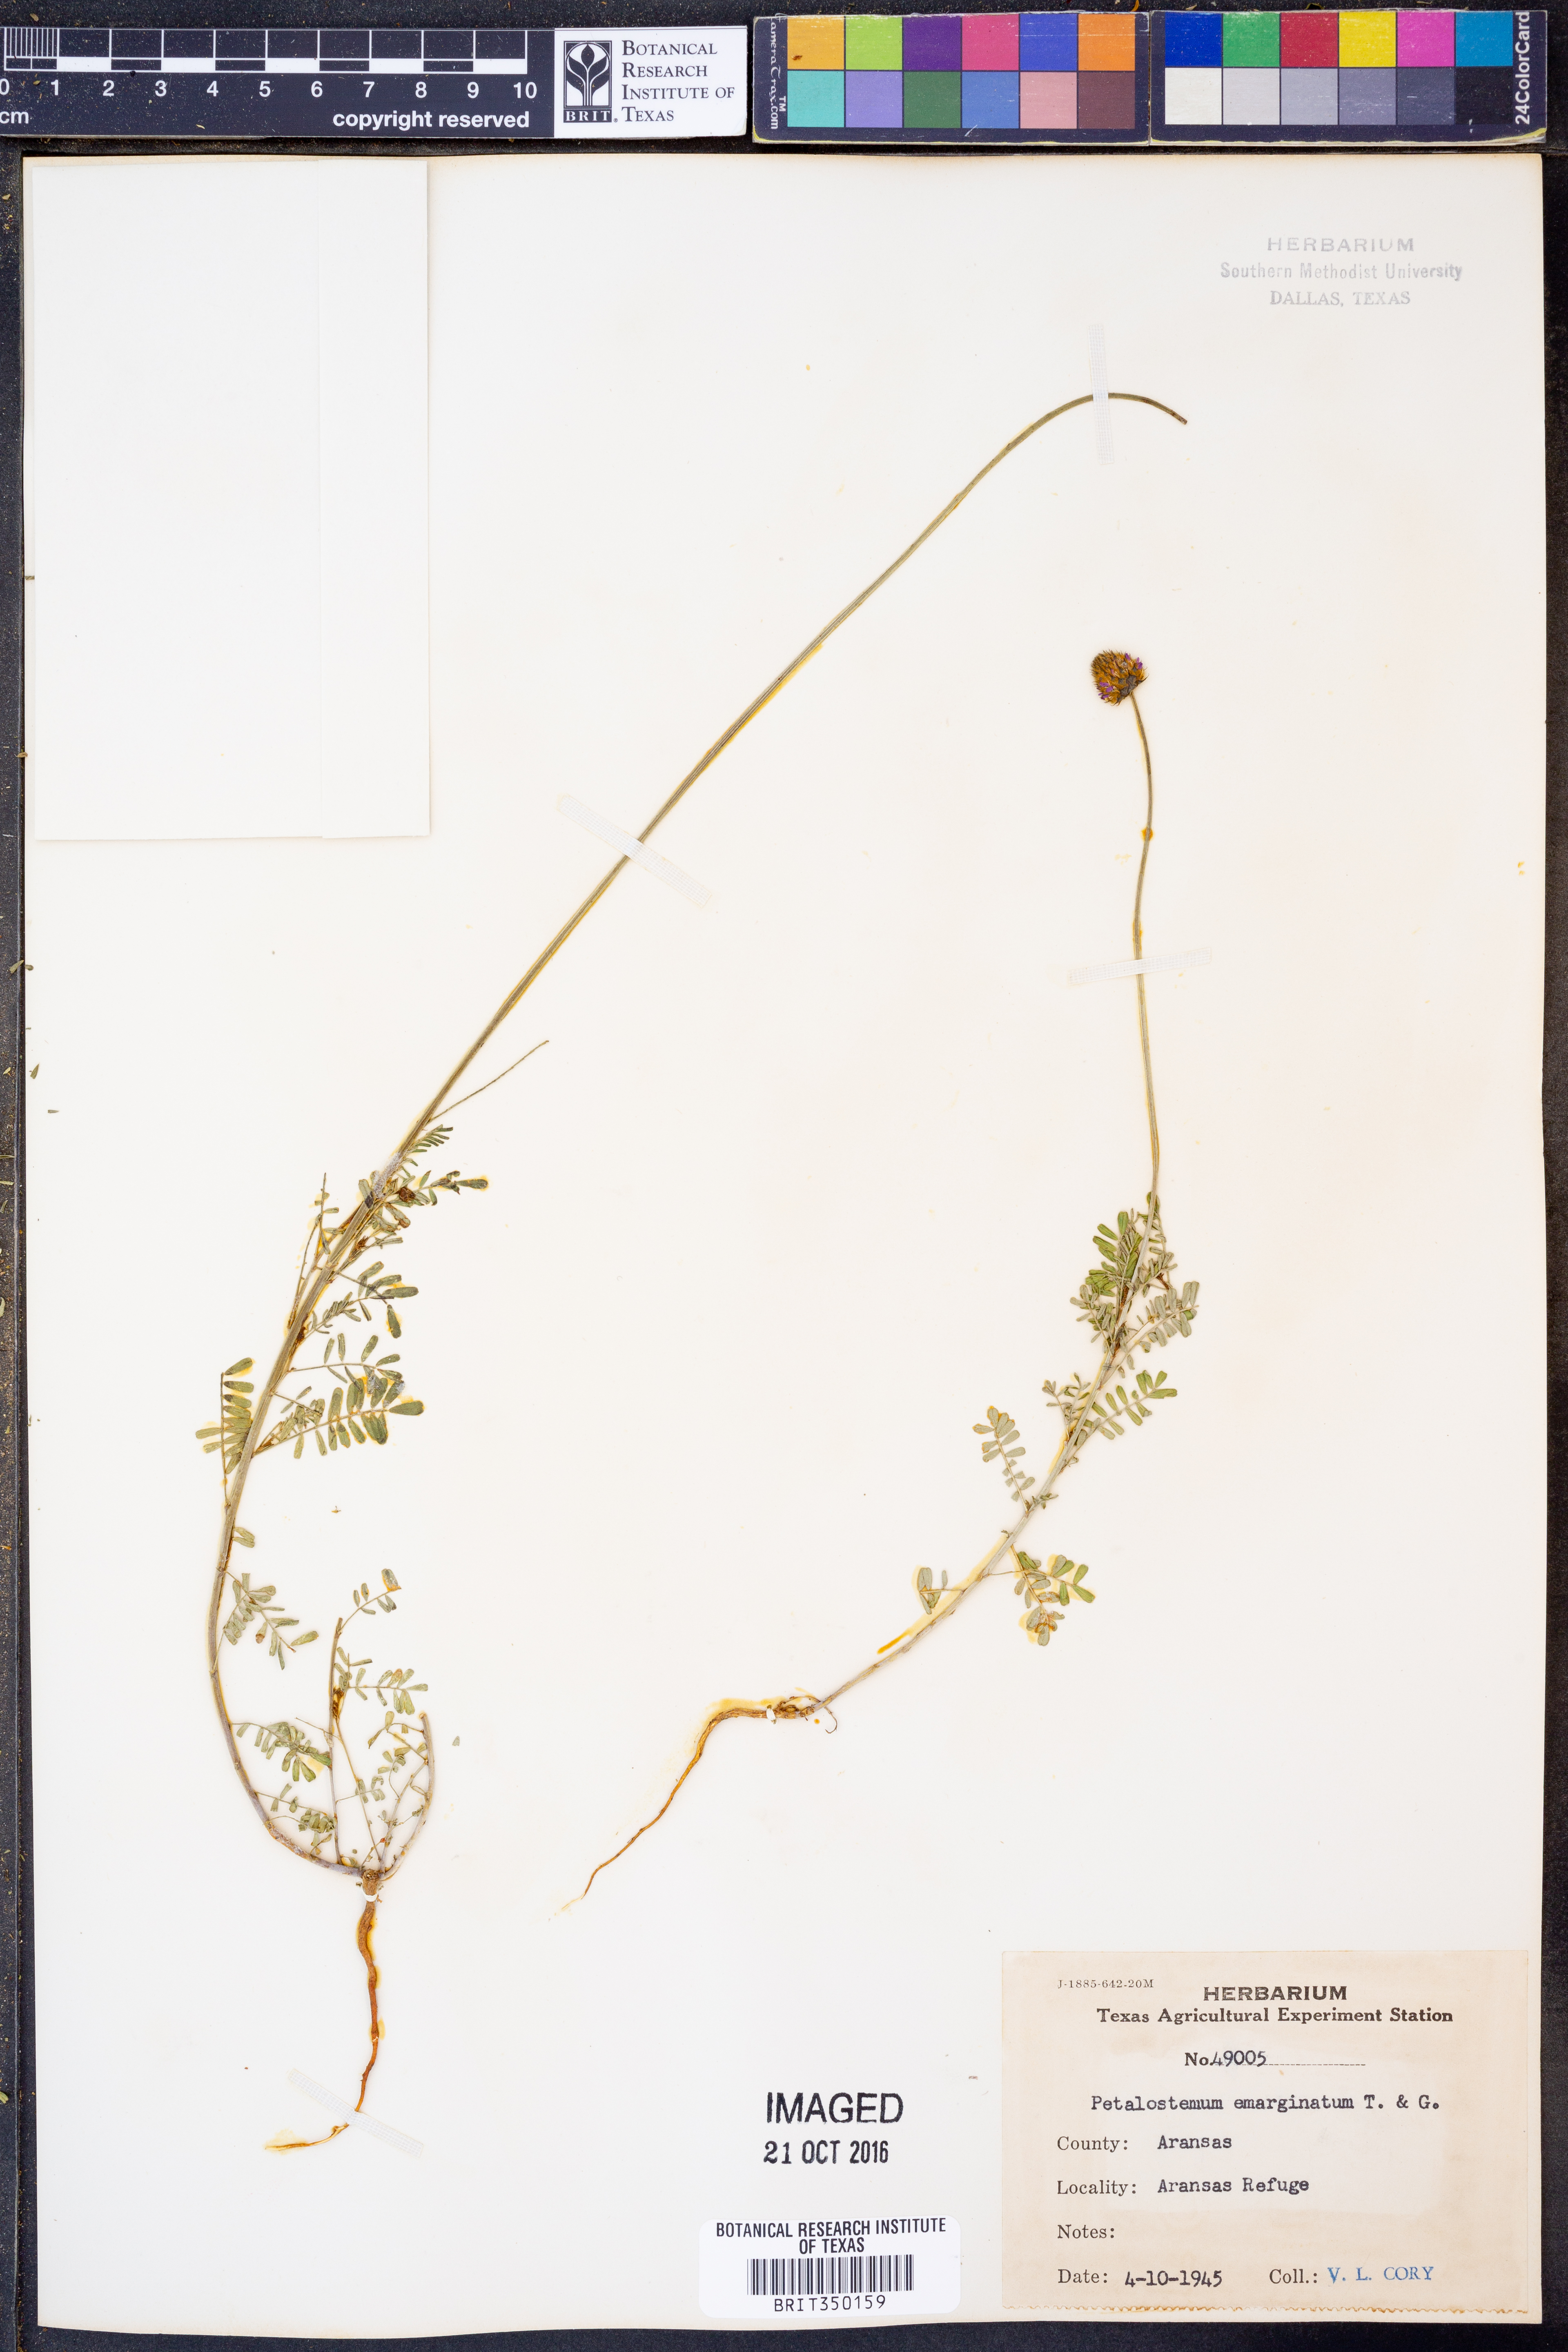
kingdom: Plantae
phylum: Tracheophyta
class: Magnoliopsida
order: Fabales
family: Fabaceae
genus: Dalea
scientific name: Dalea emarginata
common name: Wedgeleaf prairie clover
